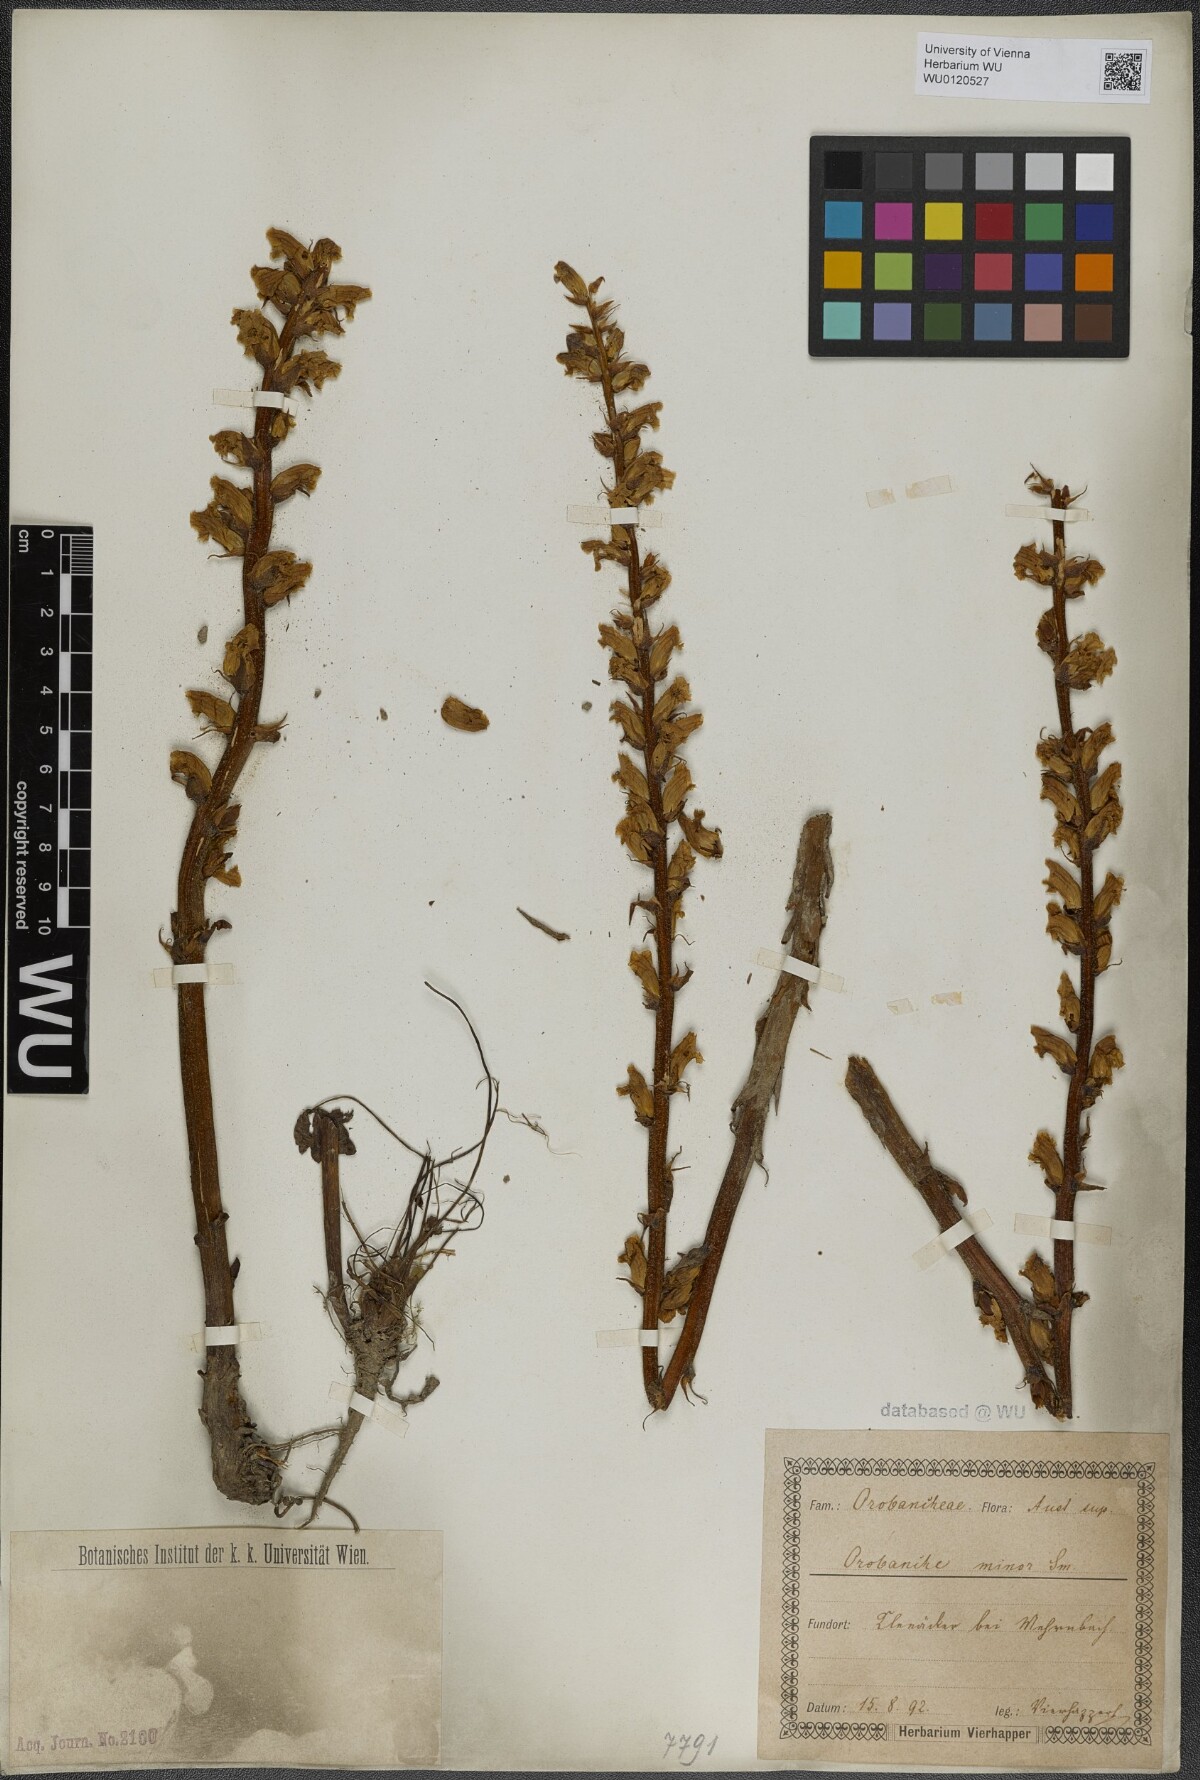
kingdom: Plantae
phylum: Tracheophyta
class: Magnoliopsida
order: Lamiales
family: Orobanchaceae
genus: Orobanche
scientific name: Orobanche minor
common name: Common broomrape
